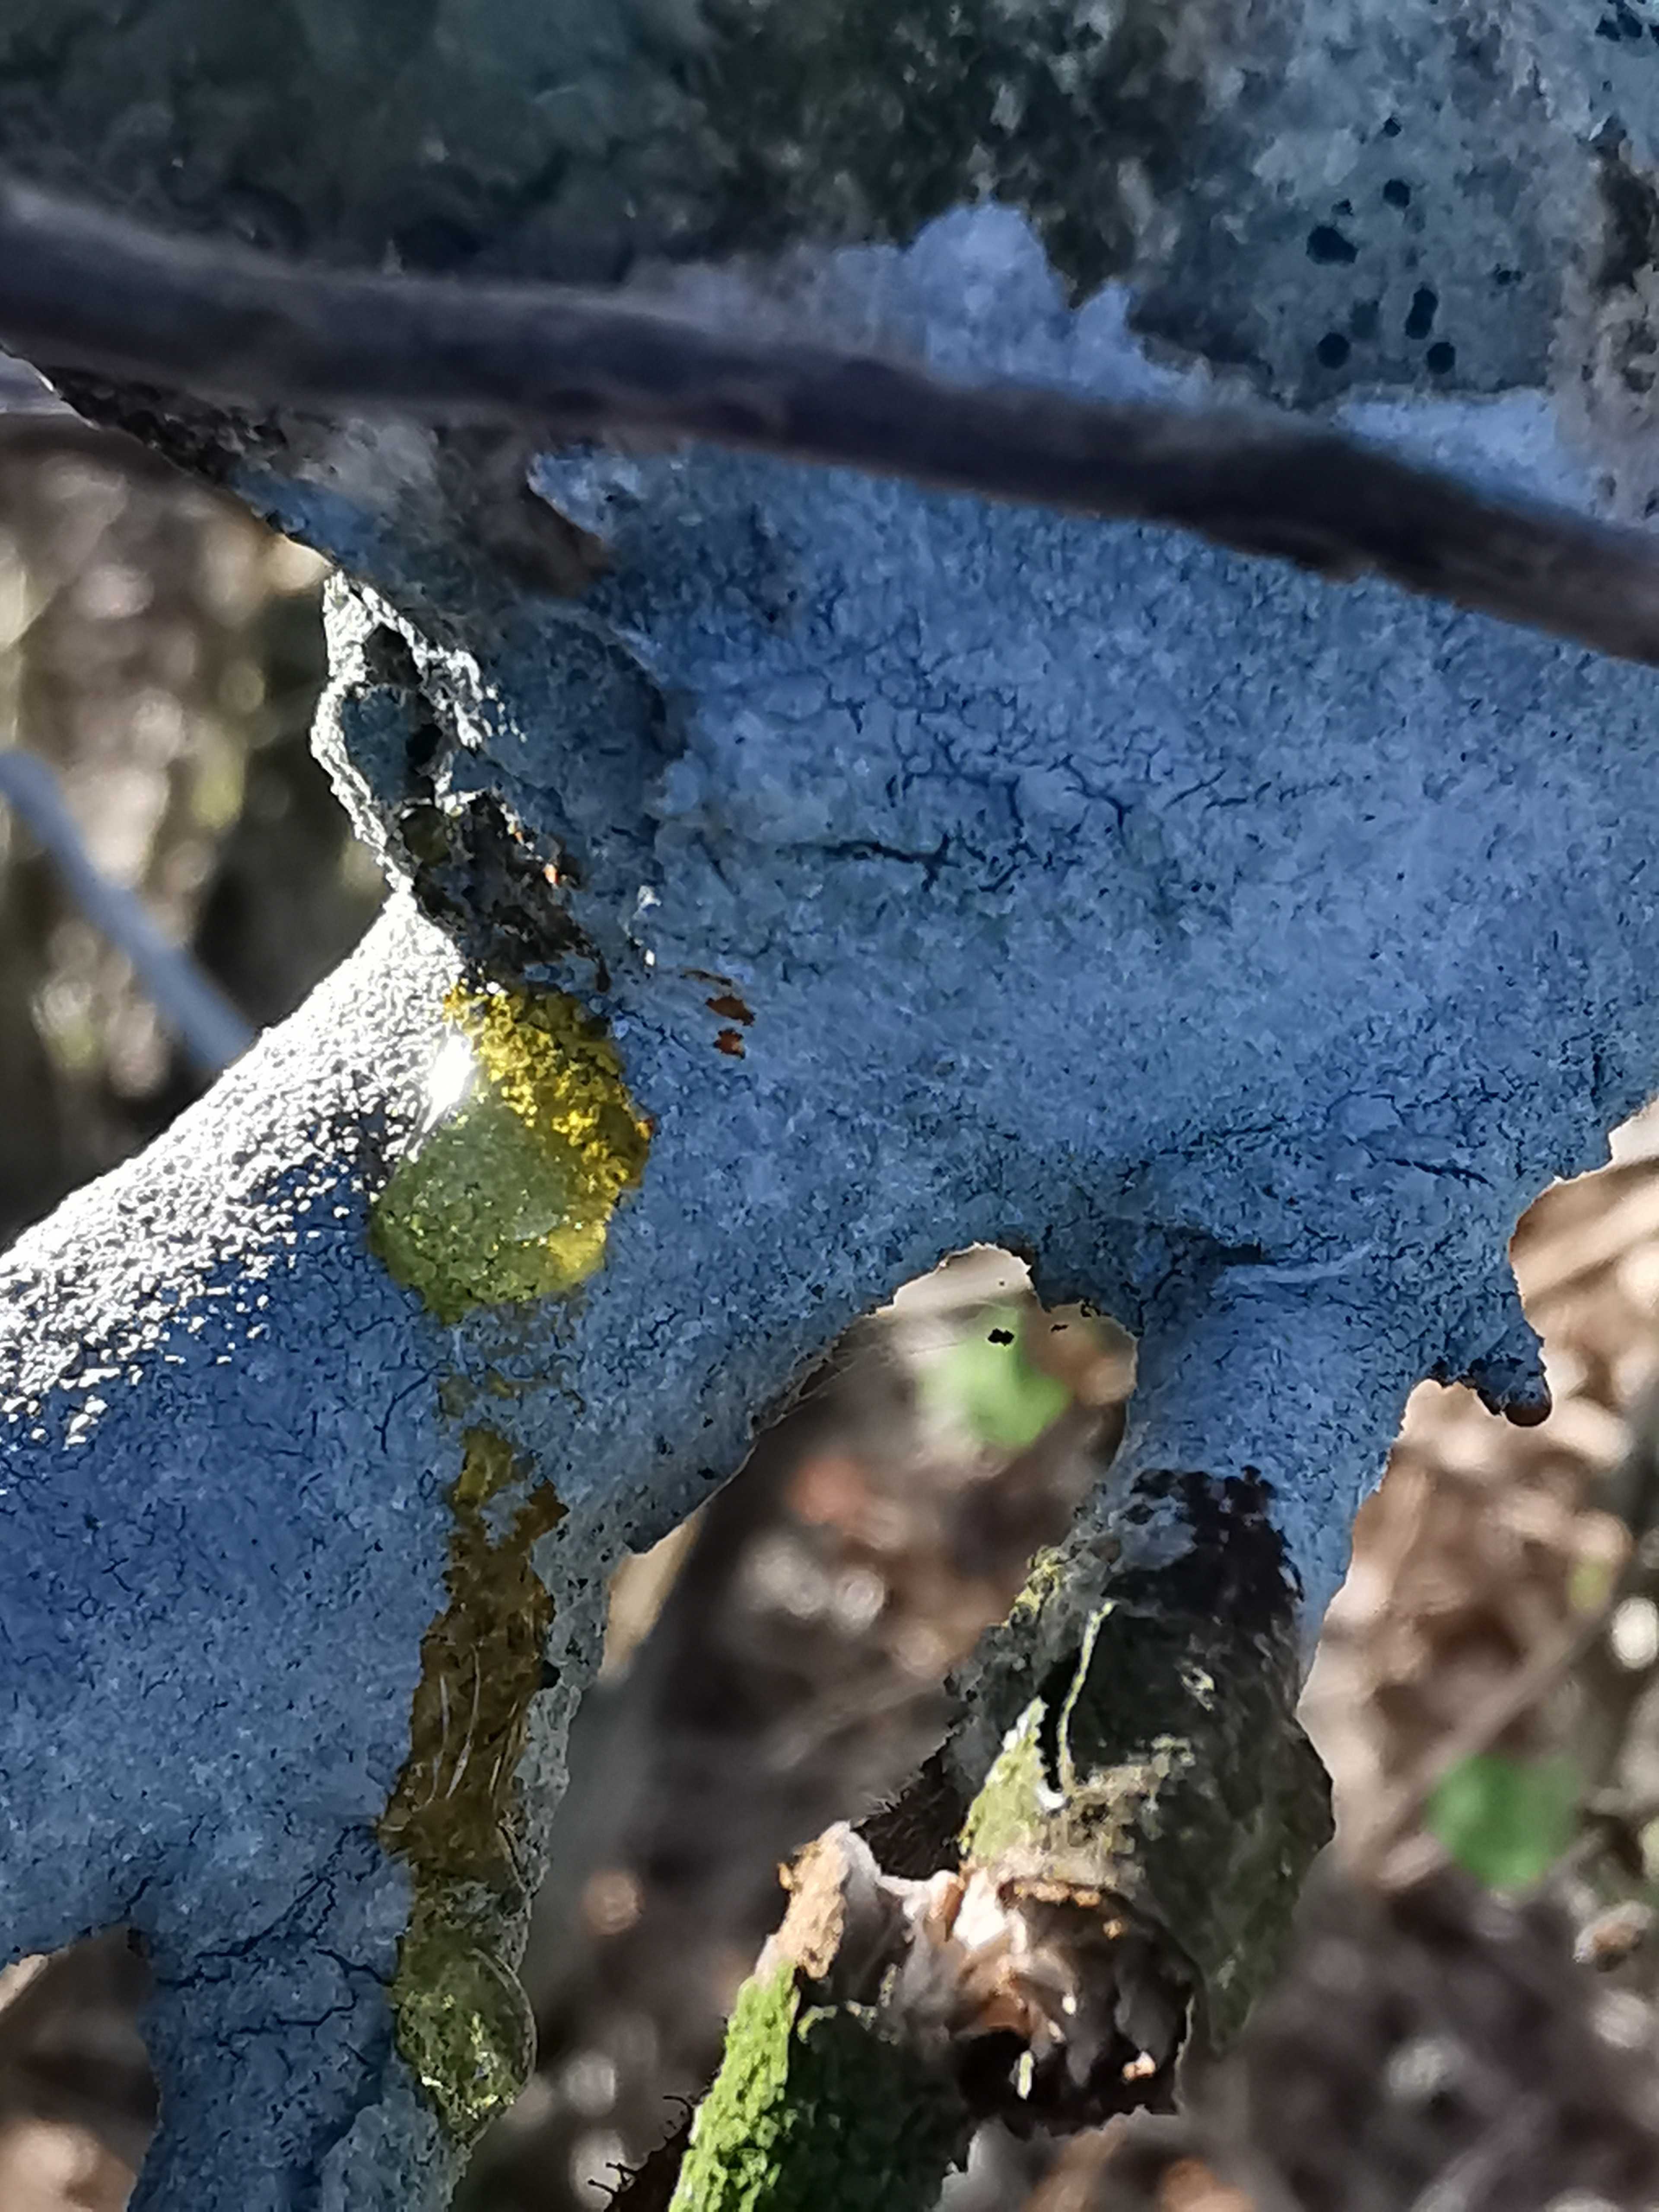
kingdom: Fungi
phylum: Ascomycota
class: Lecanoromycetes
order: Ostropales
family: Phlyctidaceae
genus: Phlyctis
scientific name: Phlyctis argena
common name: almindelig sølvlav
